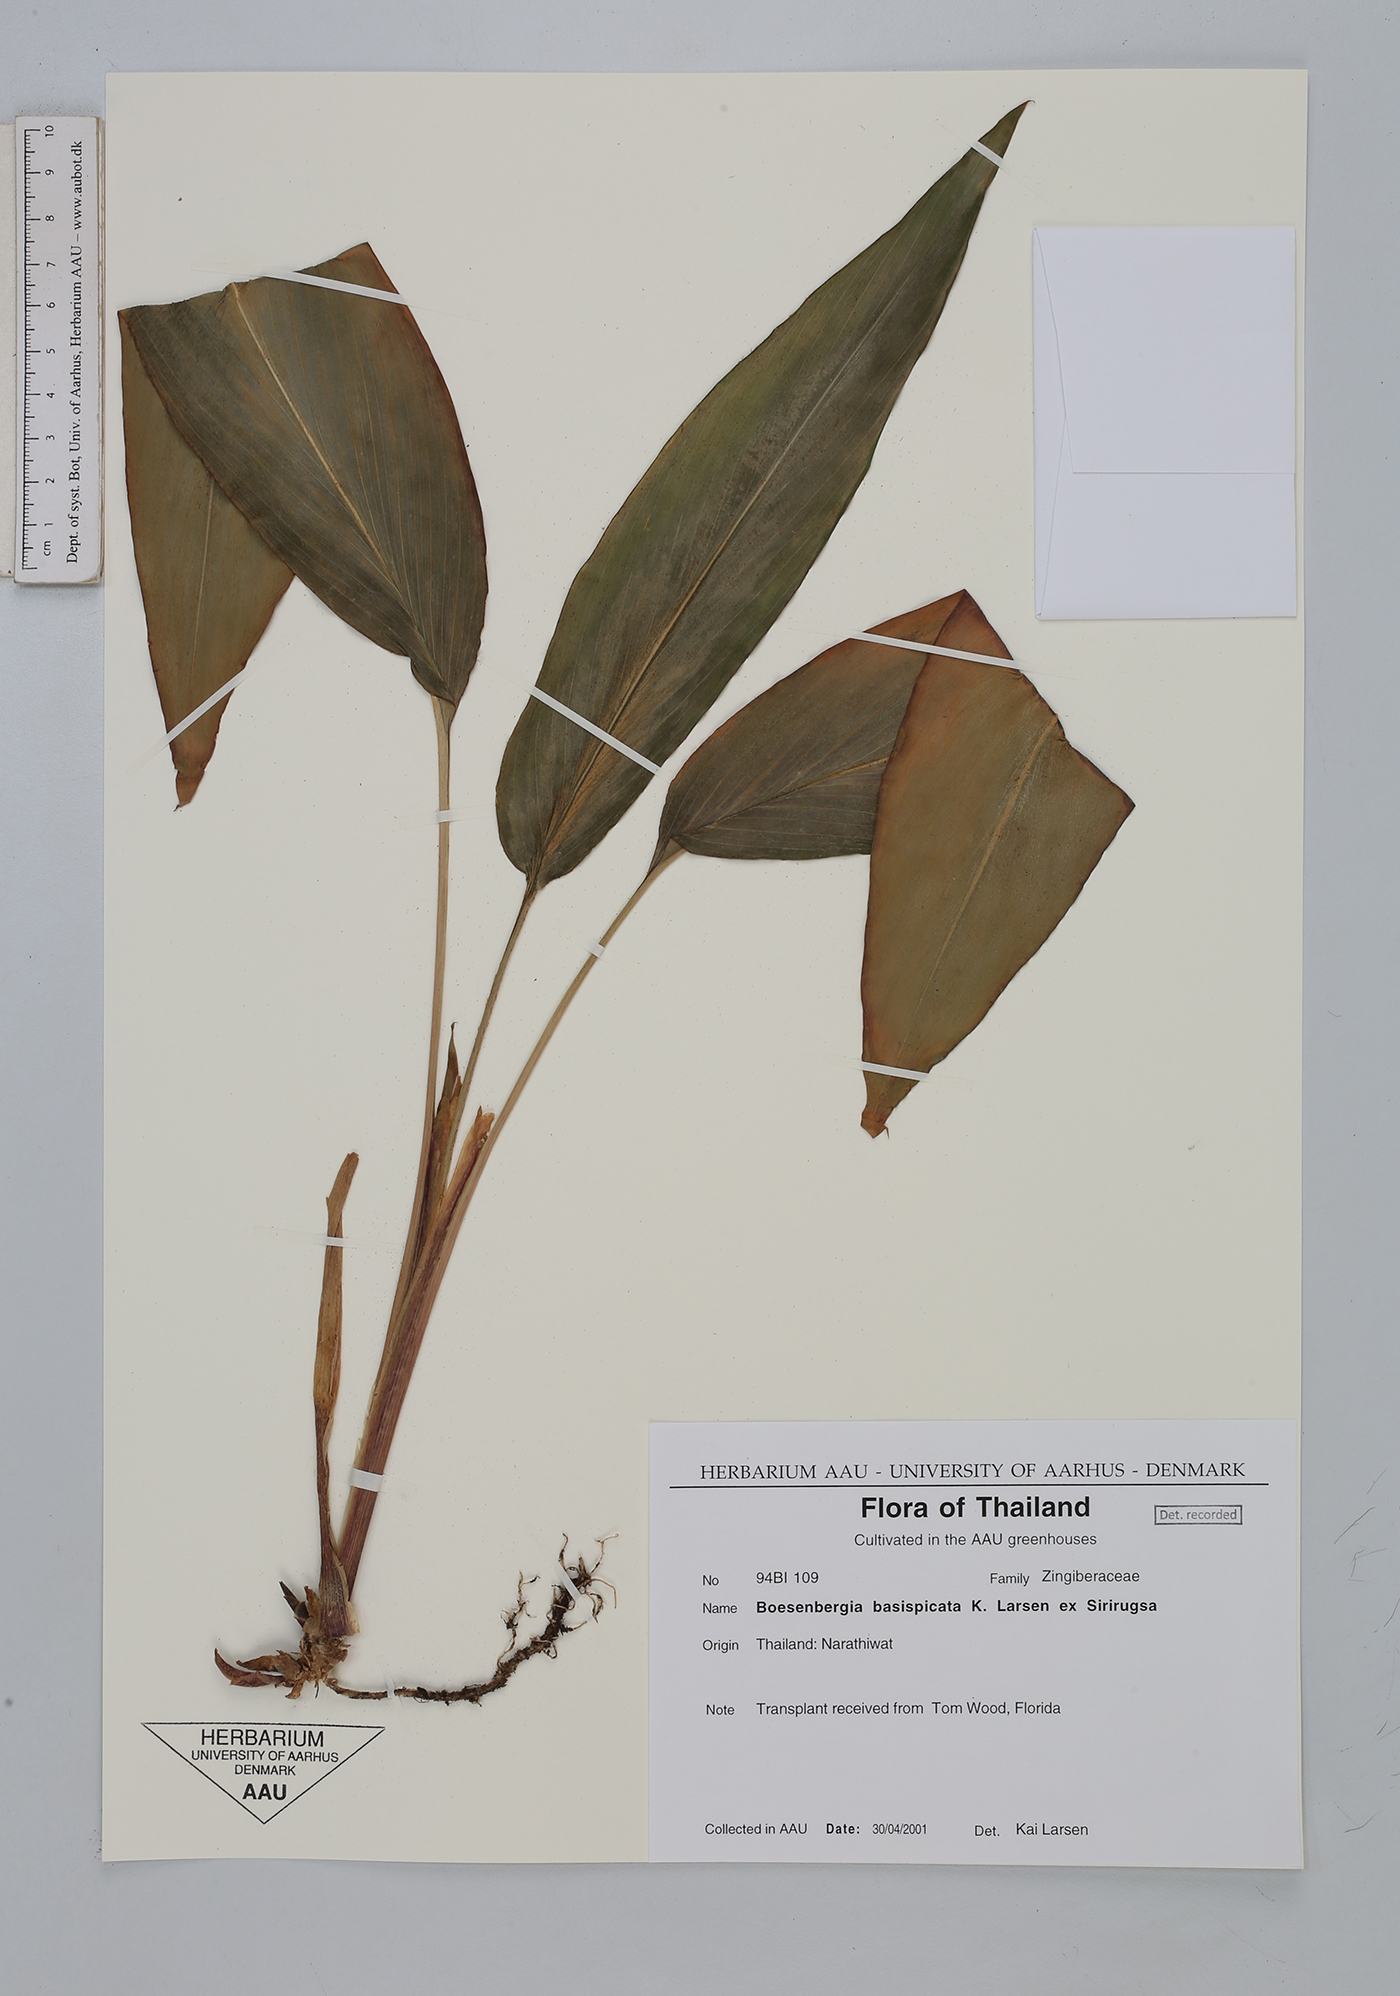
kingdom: Plantae
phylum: Tracheophyta
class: Liliopsida
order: Zingiberales
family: Zingiberaceae
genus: Boesenbergia
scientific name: Boesenbergia basispicata
